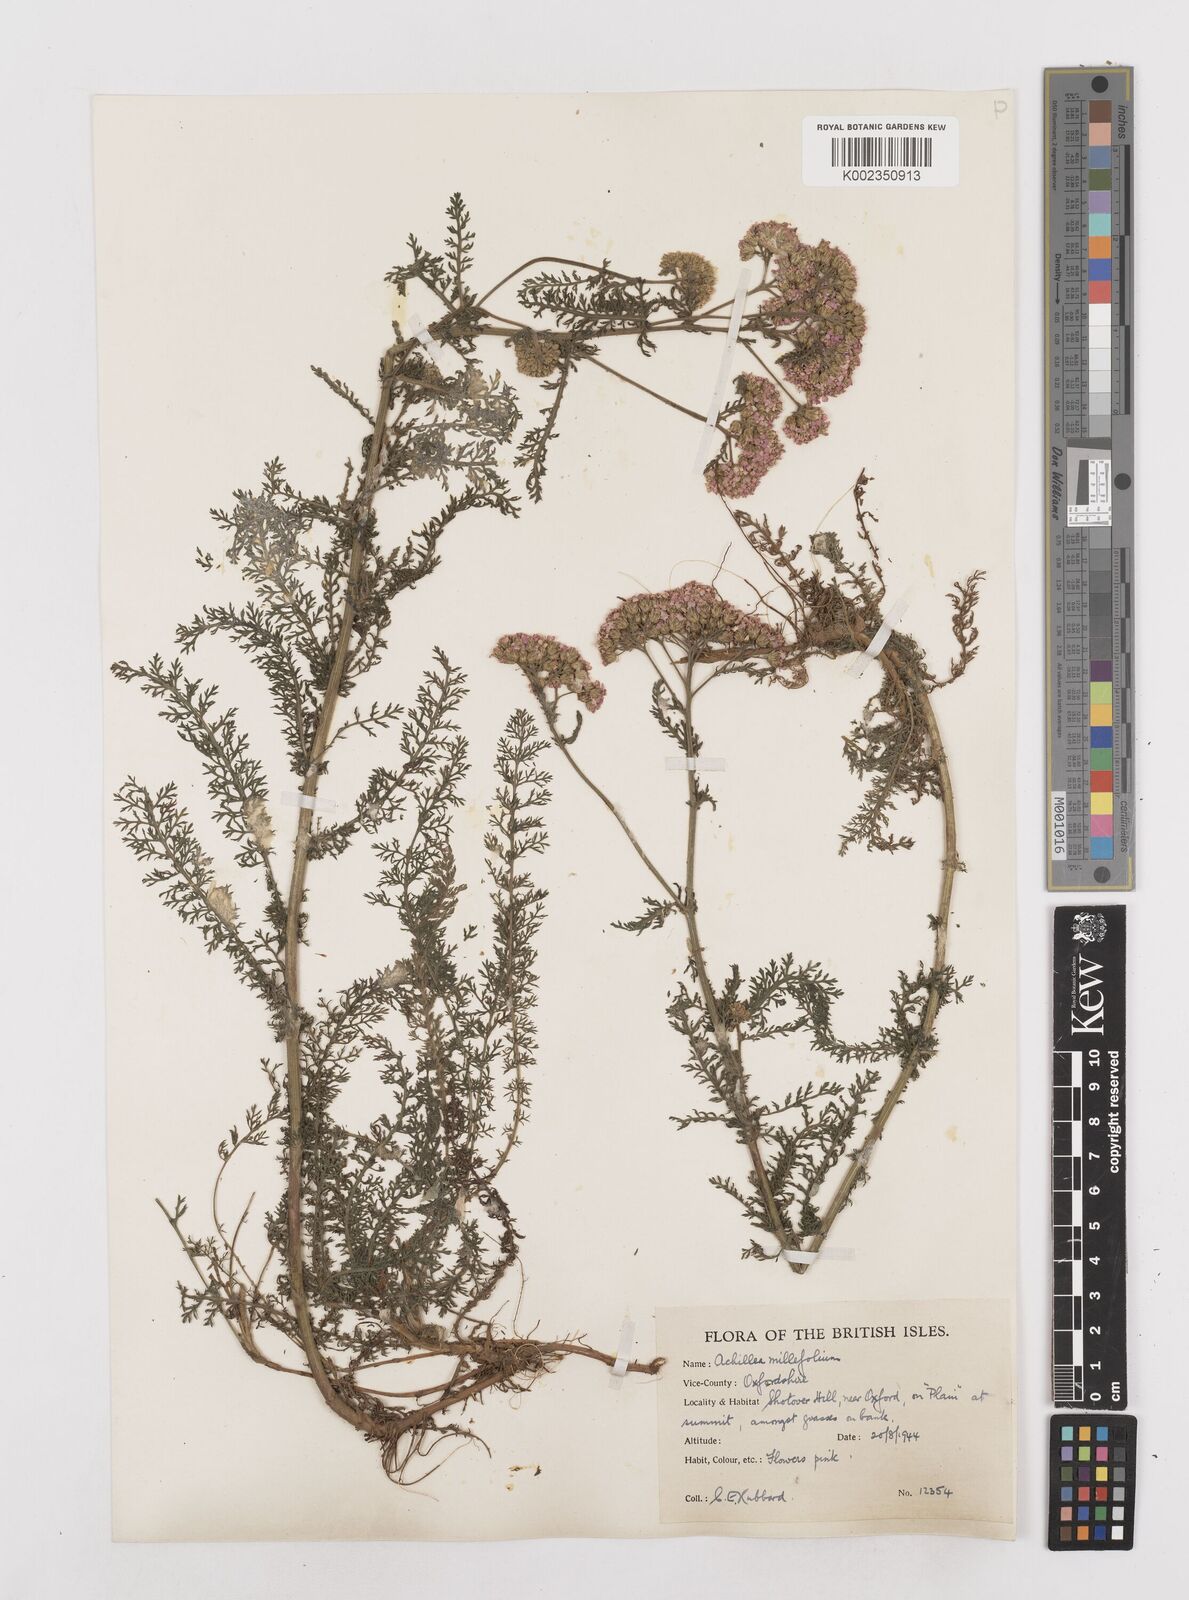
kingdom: Plantae
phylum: Tracheophyta
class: Magnoliopsida
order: Asterales
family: Asteraceae
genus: Achillea
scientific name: Achillea millefolium
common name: Yarrow
